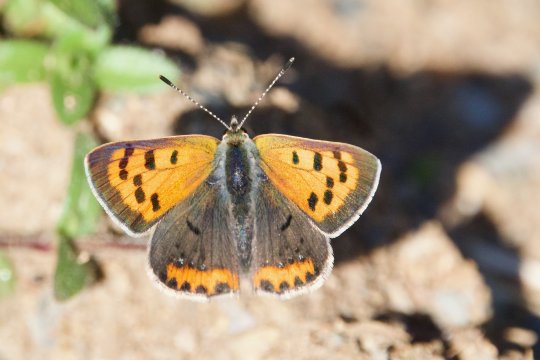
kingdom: Animalia
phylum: Arthropoda
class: Insecta
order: Lepidoptera
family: Lycaenidae
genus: Lycaena
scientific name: Lycaena phlaeas
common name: American Copper
